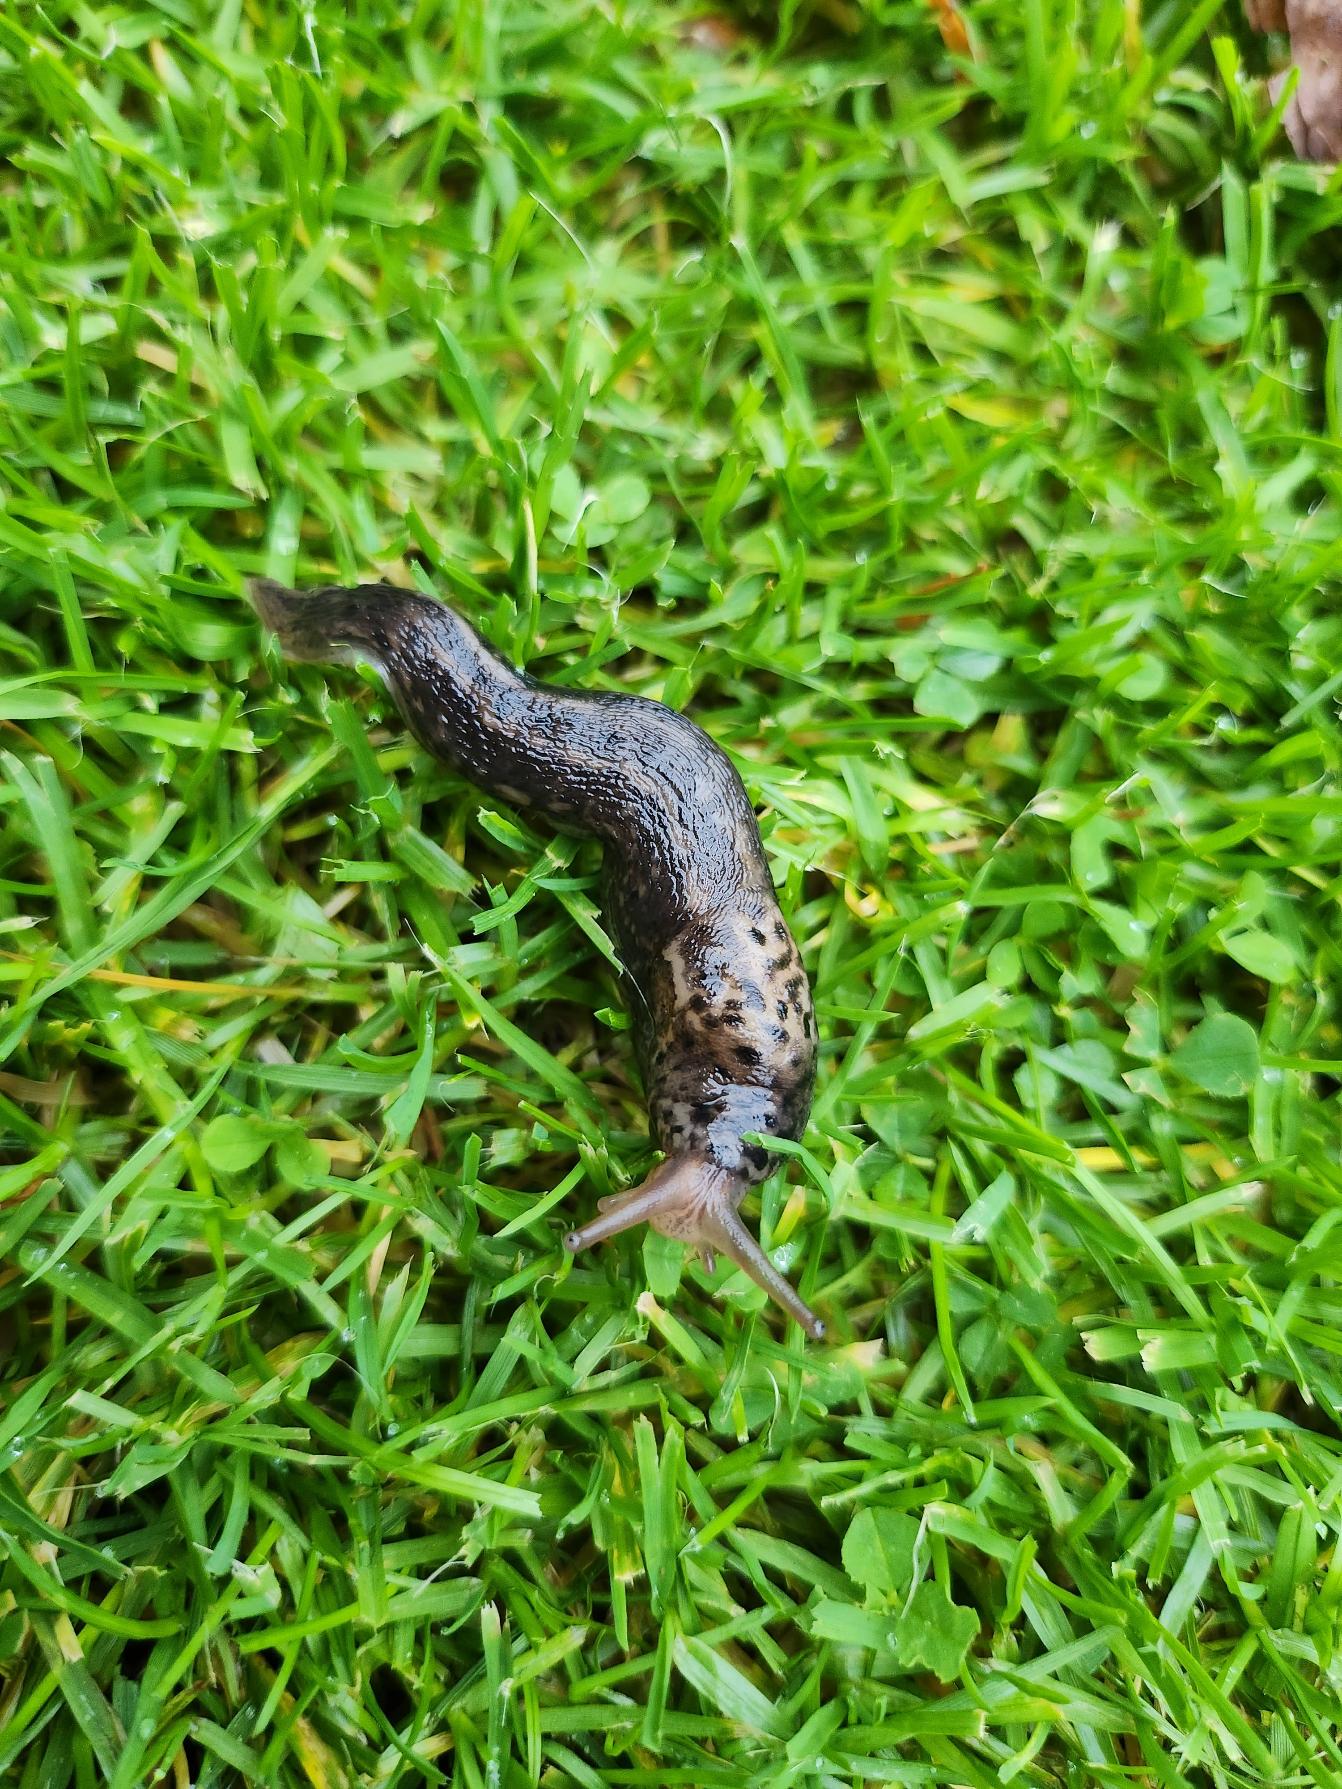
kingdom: Animalia
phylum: Mollusca
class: Gastropoda
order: Stylommatophora
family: Limacidae
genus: Limax
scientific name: Limax maximus
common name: Pantersnegl
